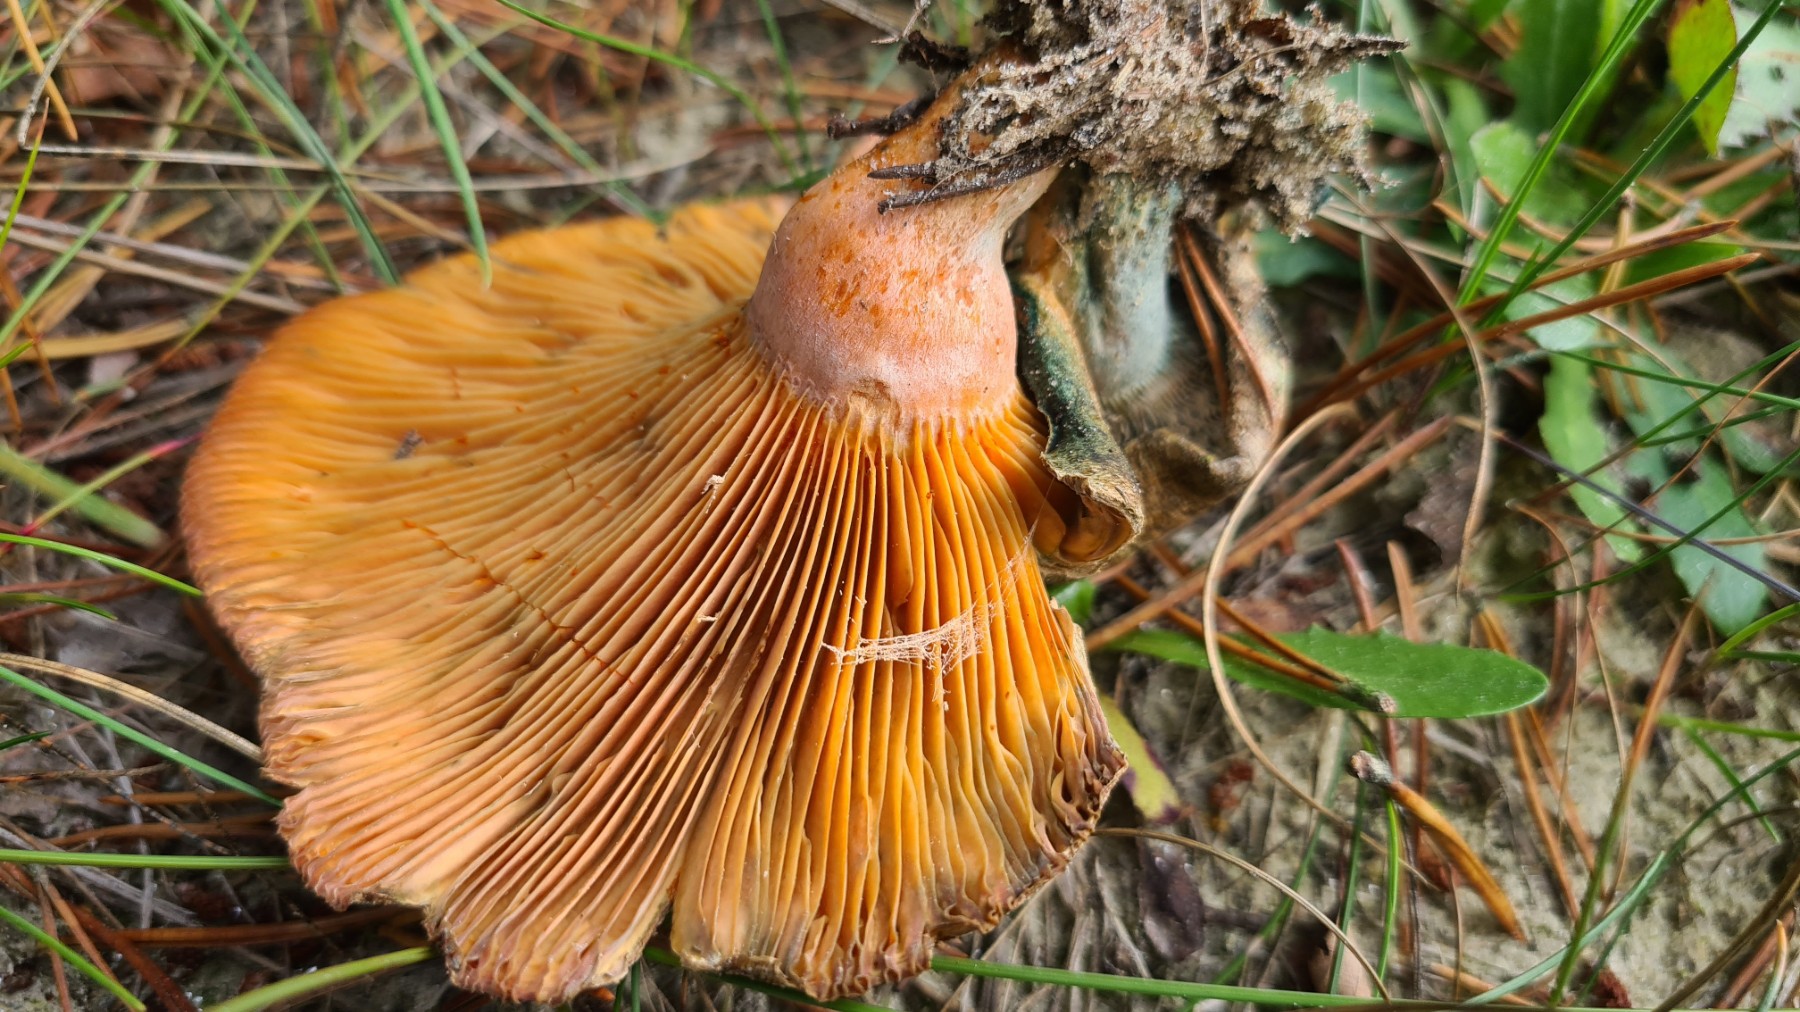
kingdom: Fungi
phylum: Basidiomycota
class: Agaricomycetes
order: Russulales
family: Russulaceae
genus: Lactarius
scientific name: Lactarius
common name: mælkehat
